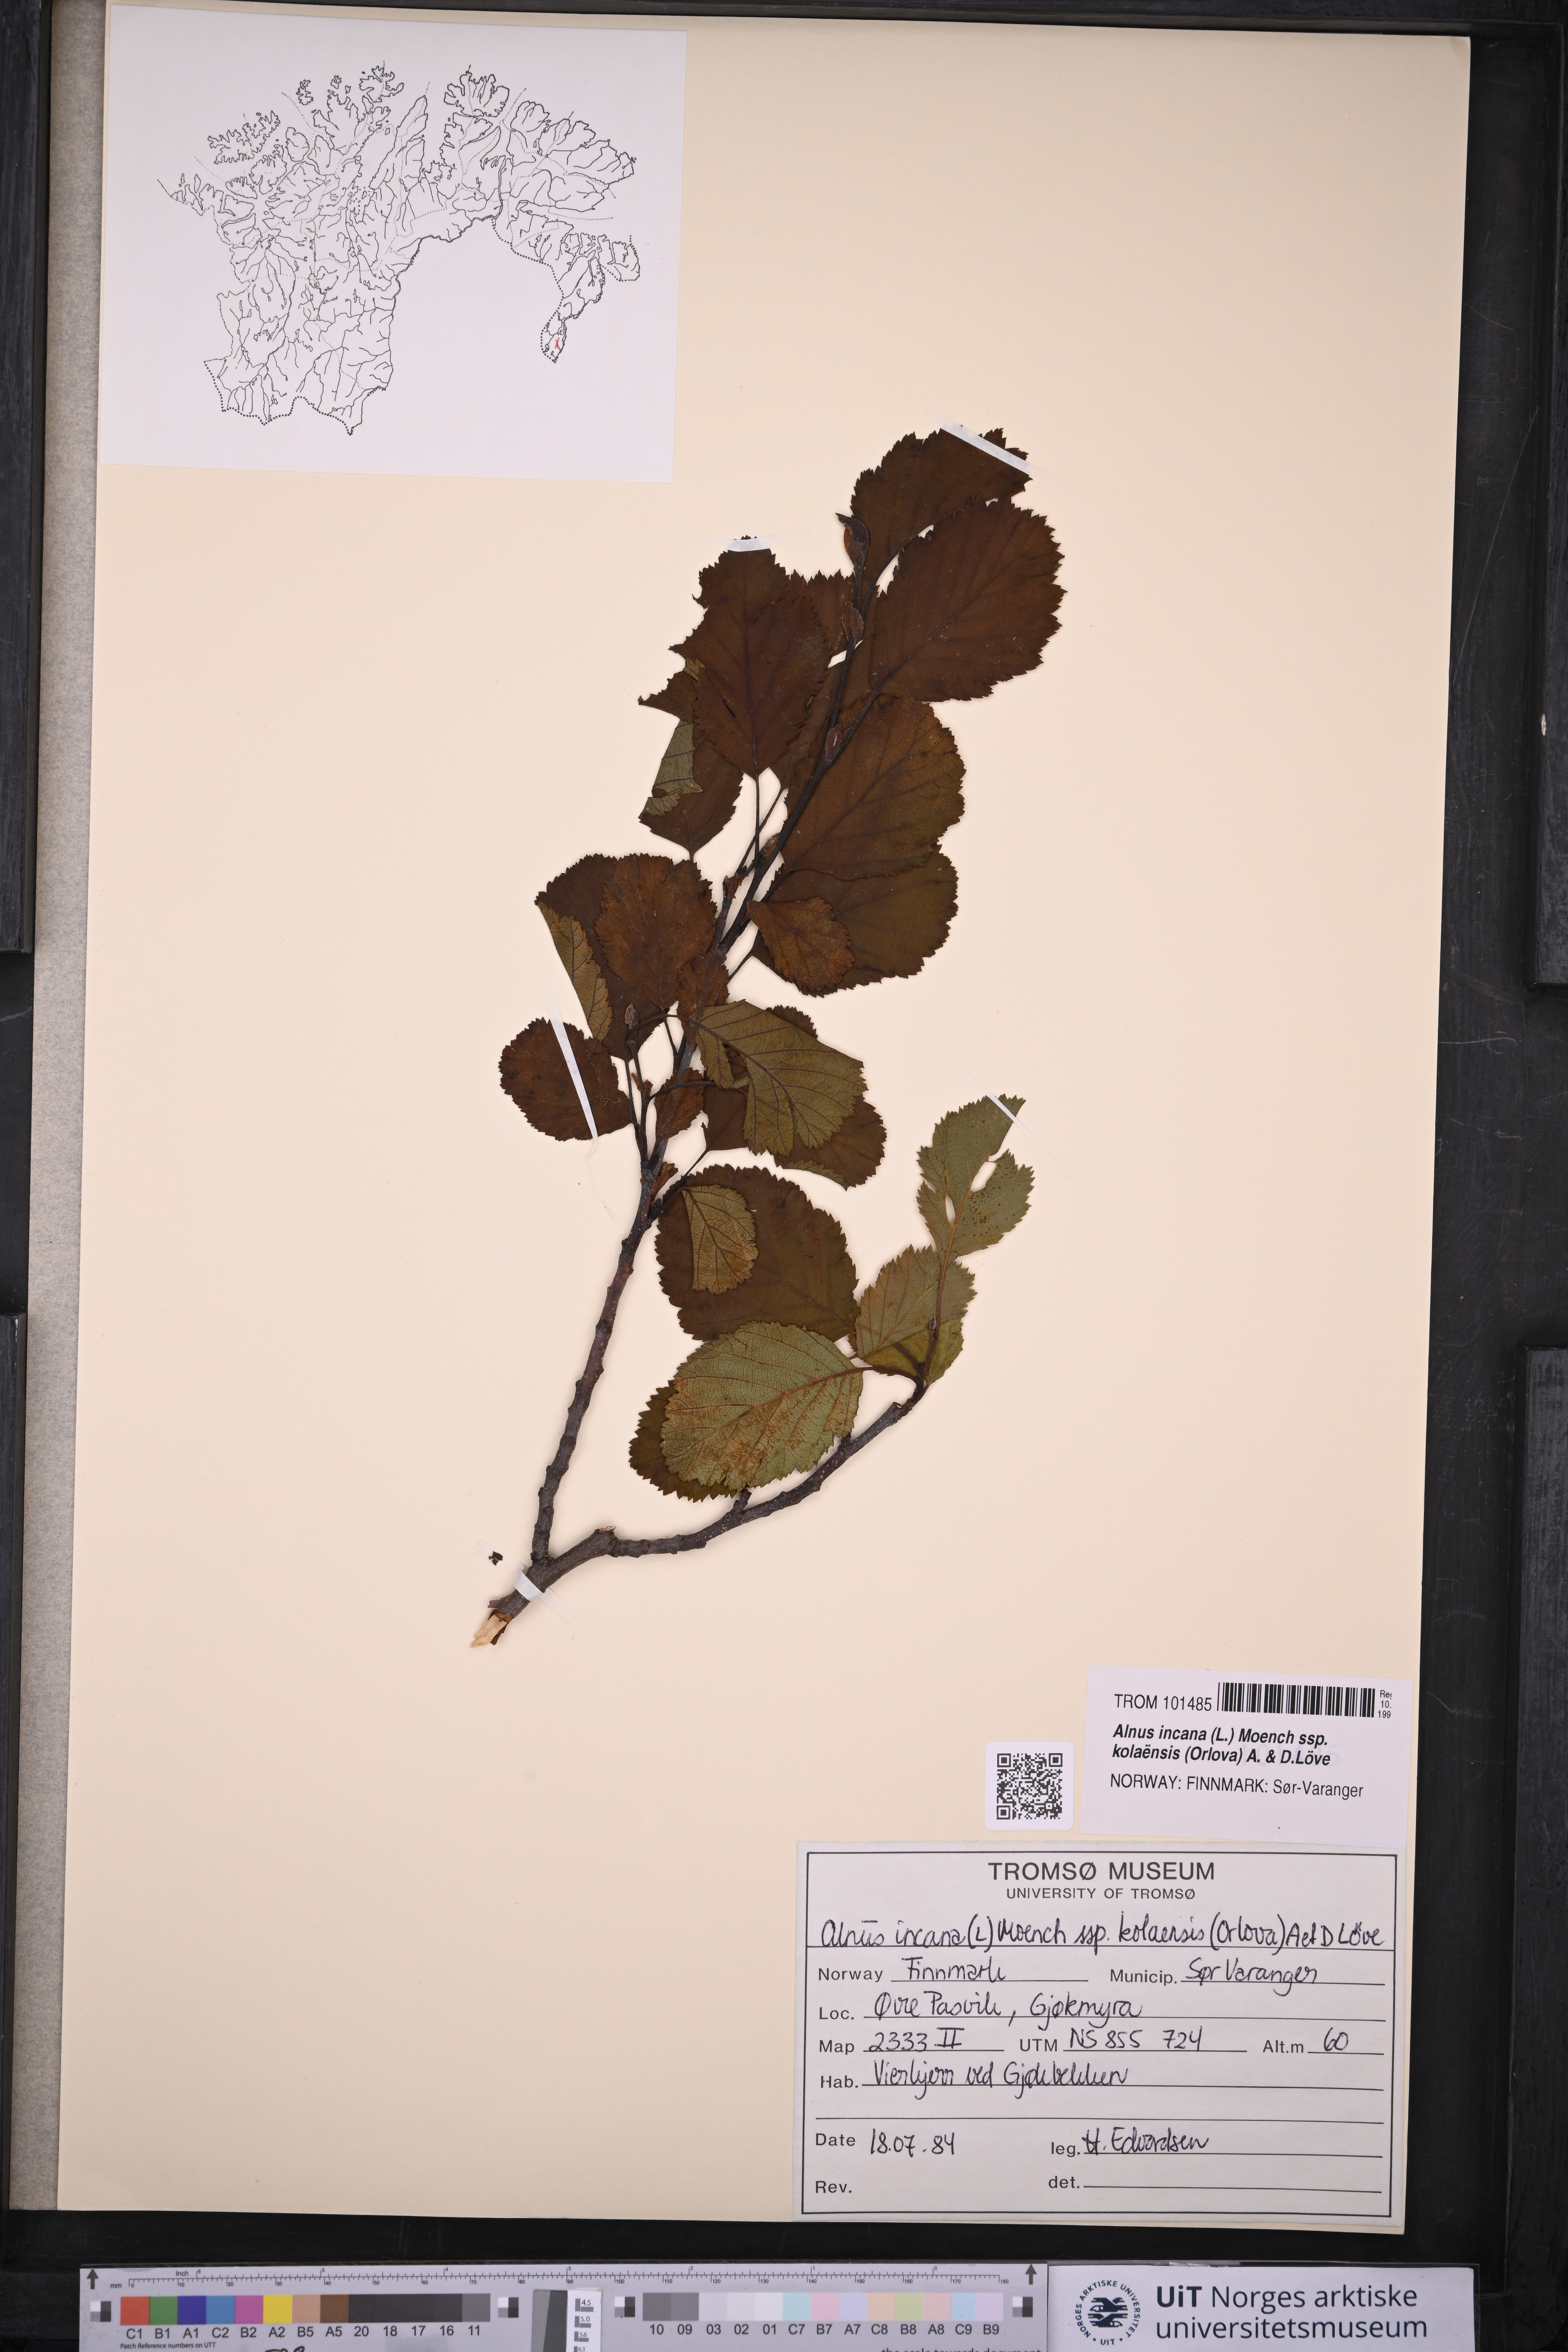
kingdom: Plantae
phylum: Tracheophyta
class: Magnoliopsida
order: Fagales
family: Betulaceae
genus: Alnus
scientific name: Alnus incana
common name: Grey alder
